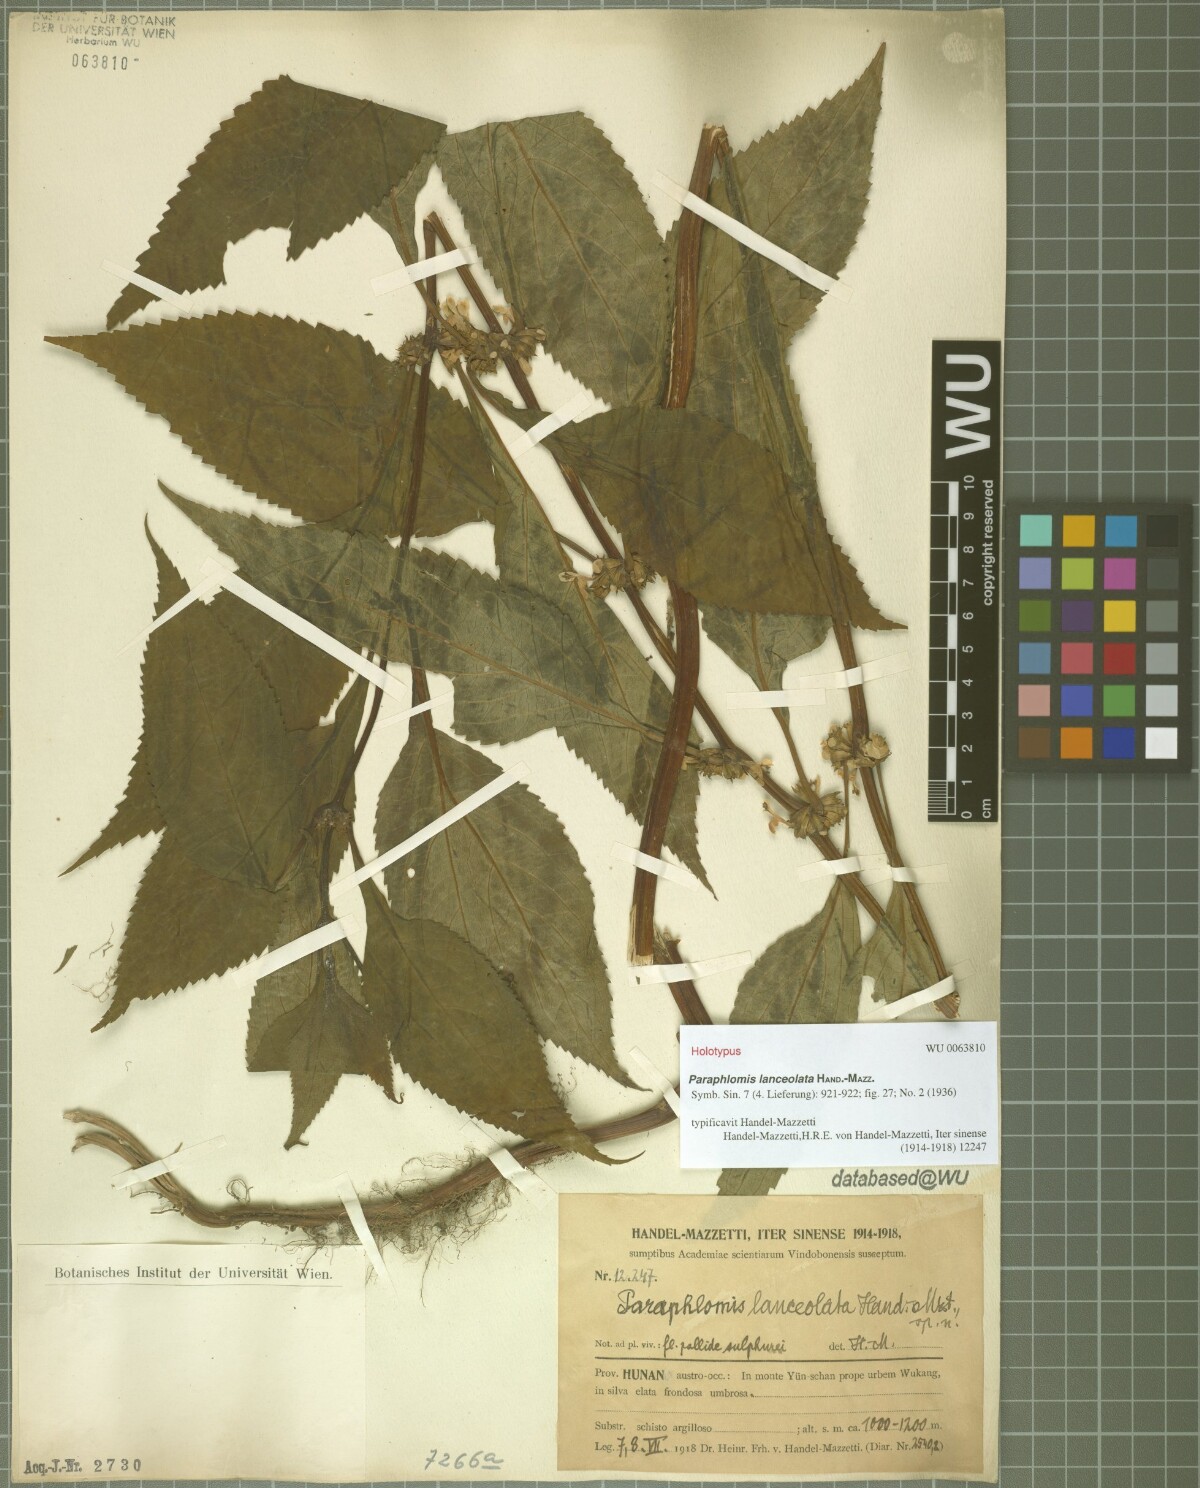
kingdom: Plantae
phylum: Tracheophyta
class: Magnoliopsida
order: Lamiales
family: Lamiaceae
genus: Paraphlomis
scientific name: Paraphlomis lanceolata
